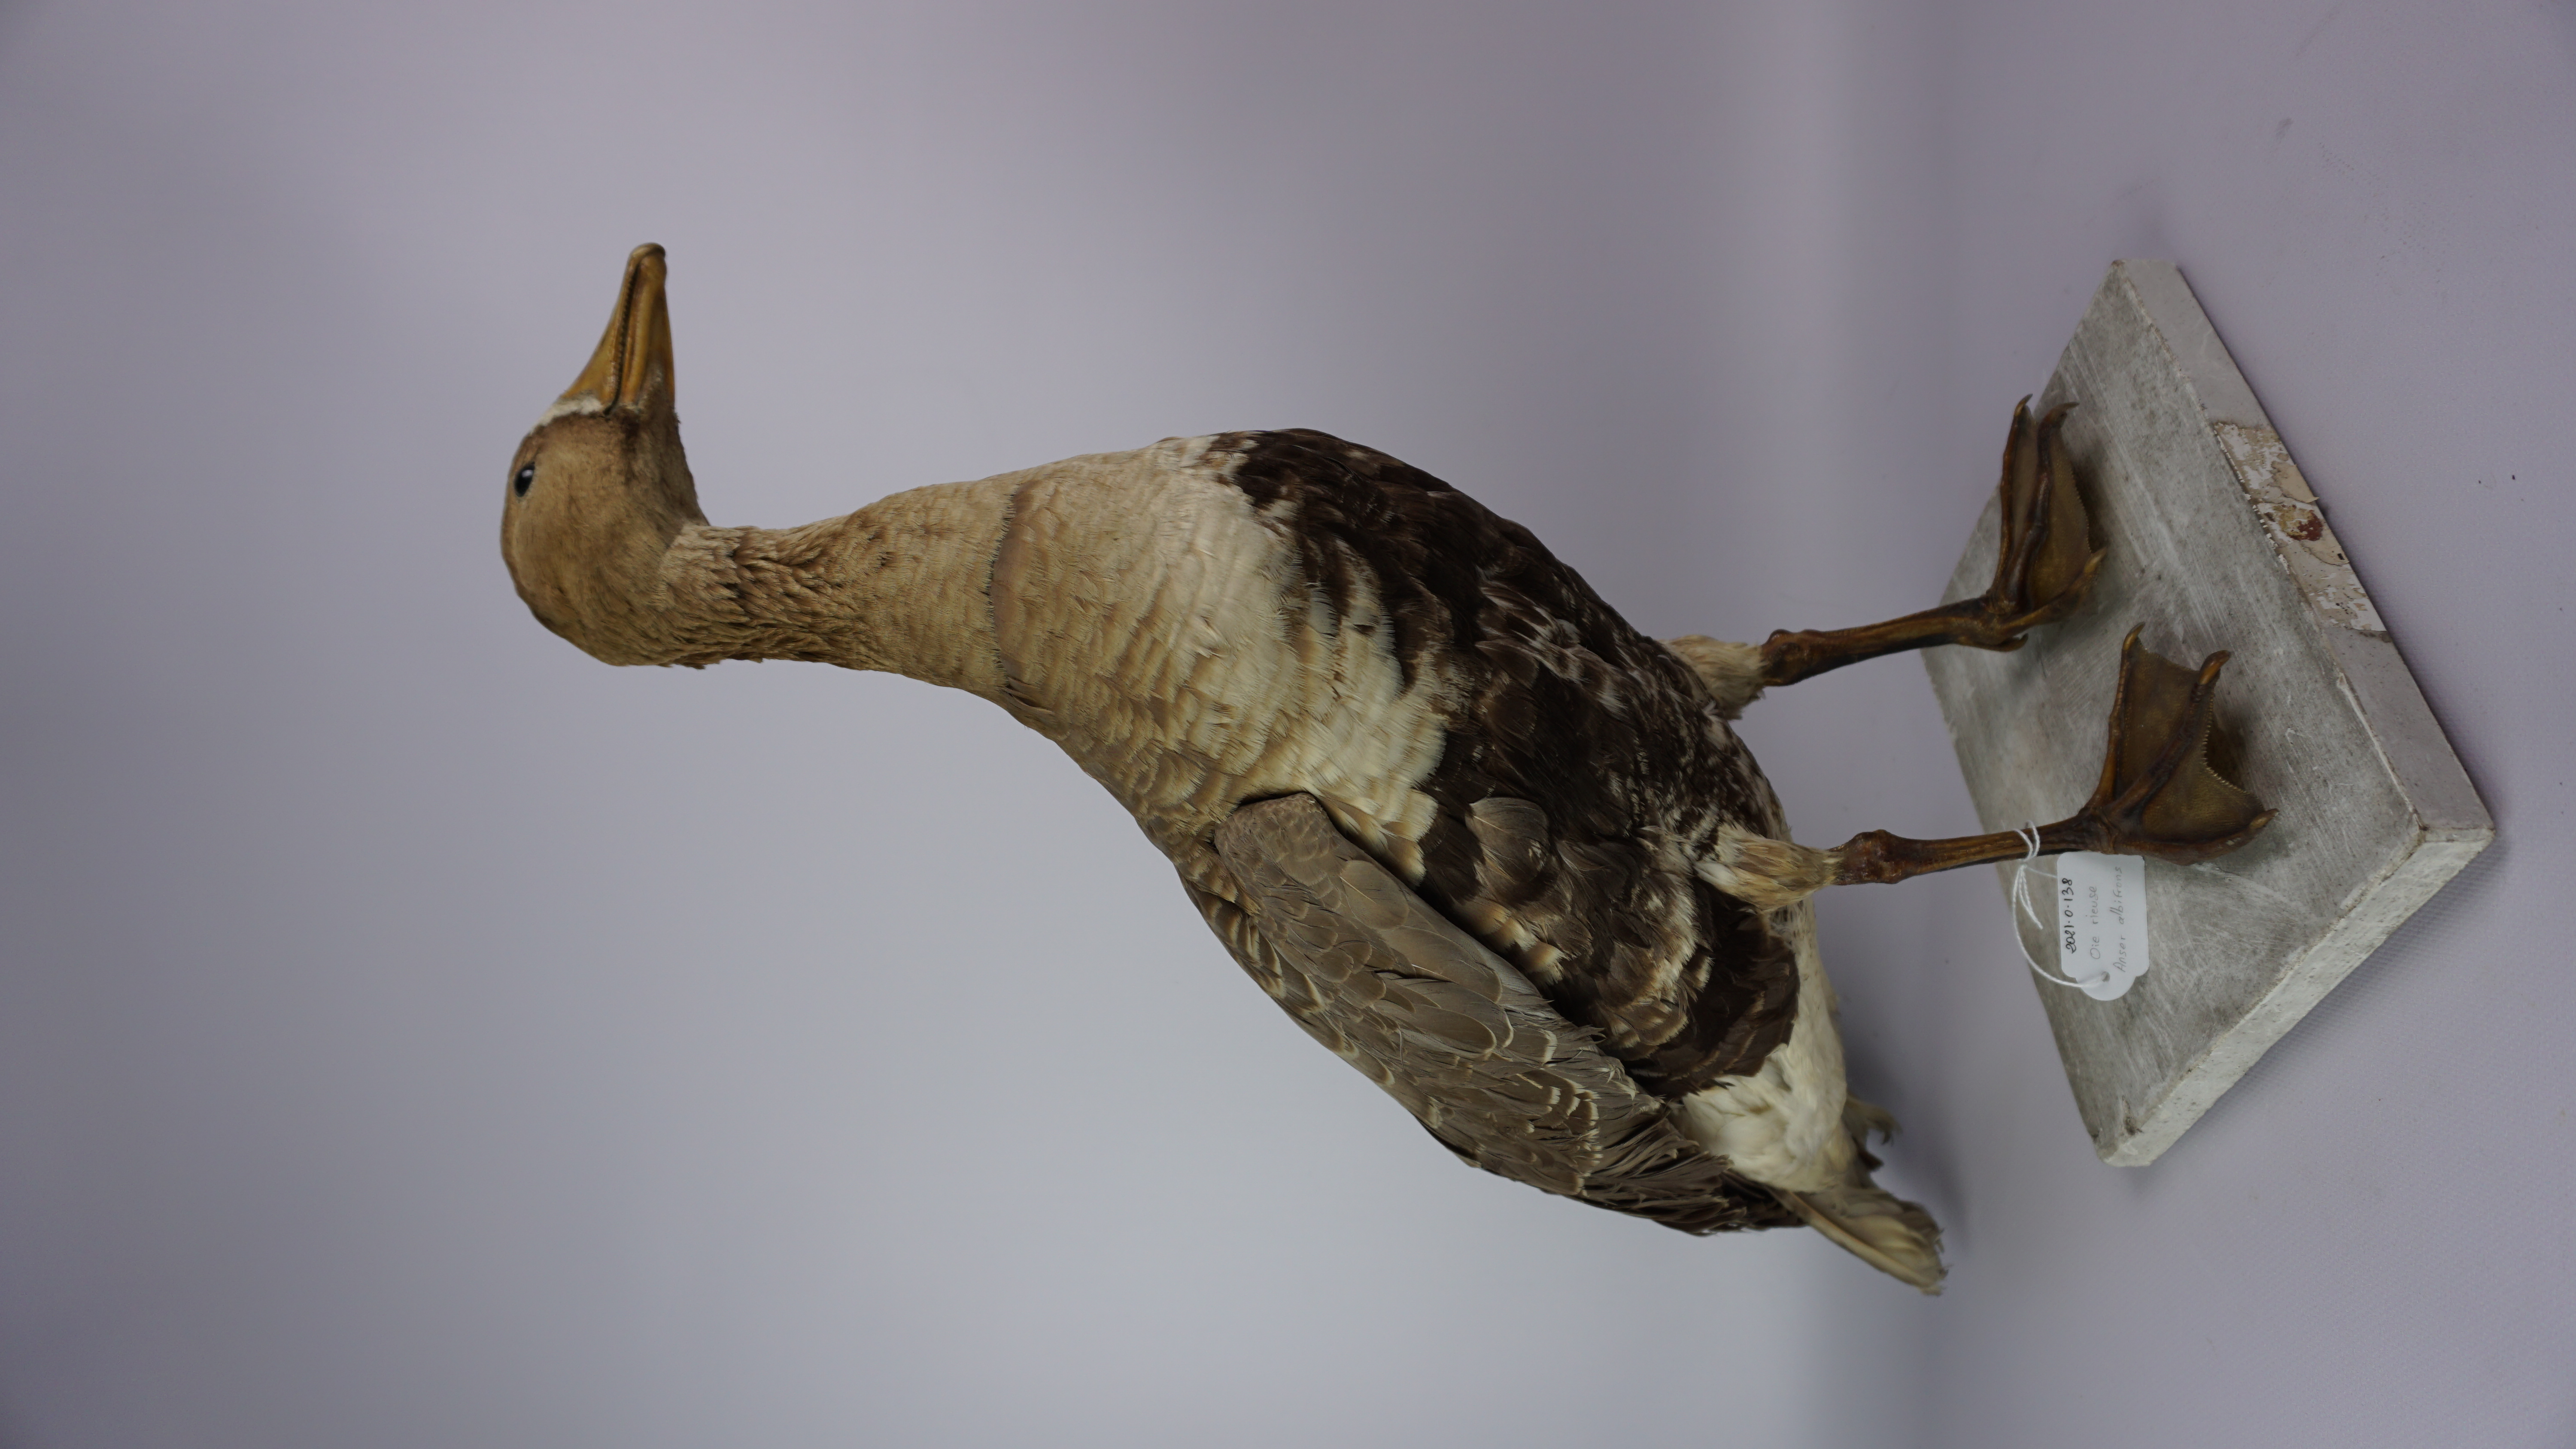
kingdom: Animalia
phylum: Chordata
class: Aves
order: Anseriformes
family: Anatidae
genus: Anser
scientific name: Anser albifrons
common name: Greater white-fronted goose
